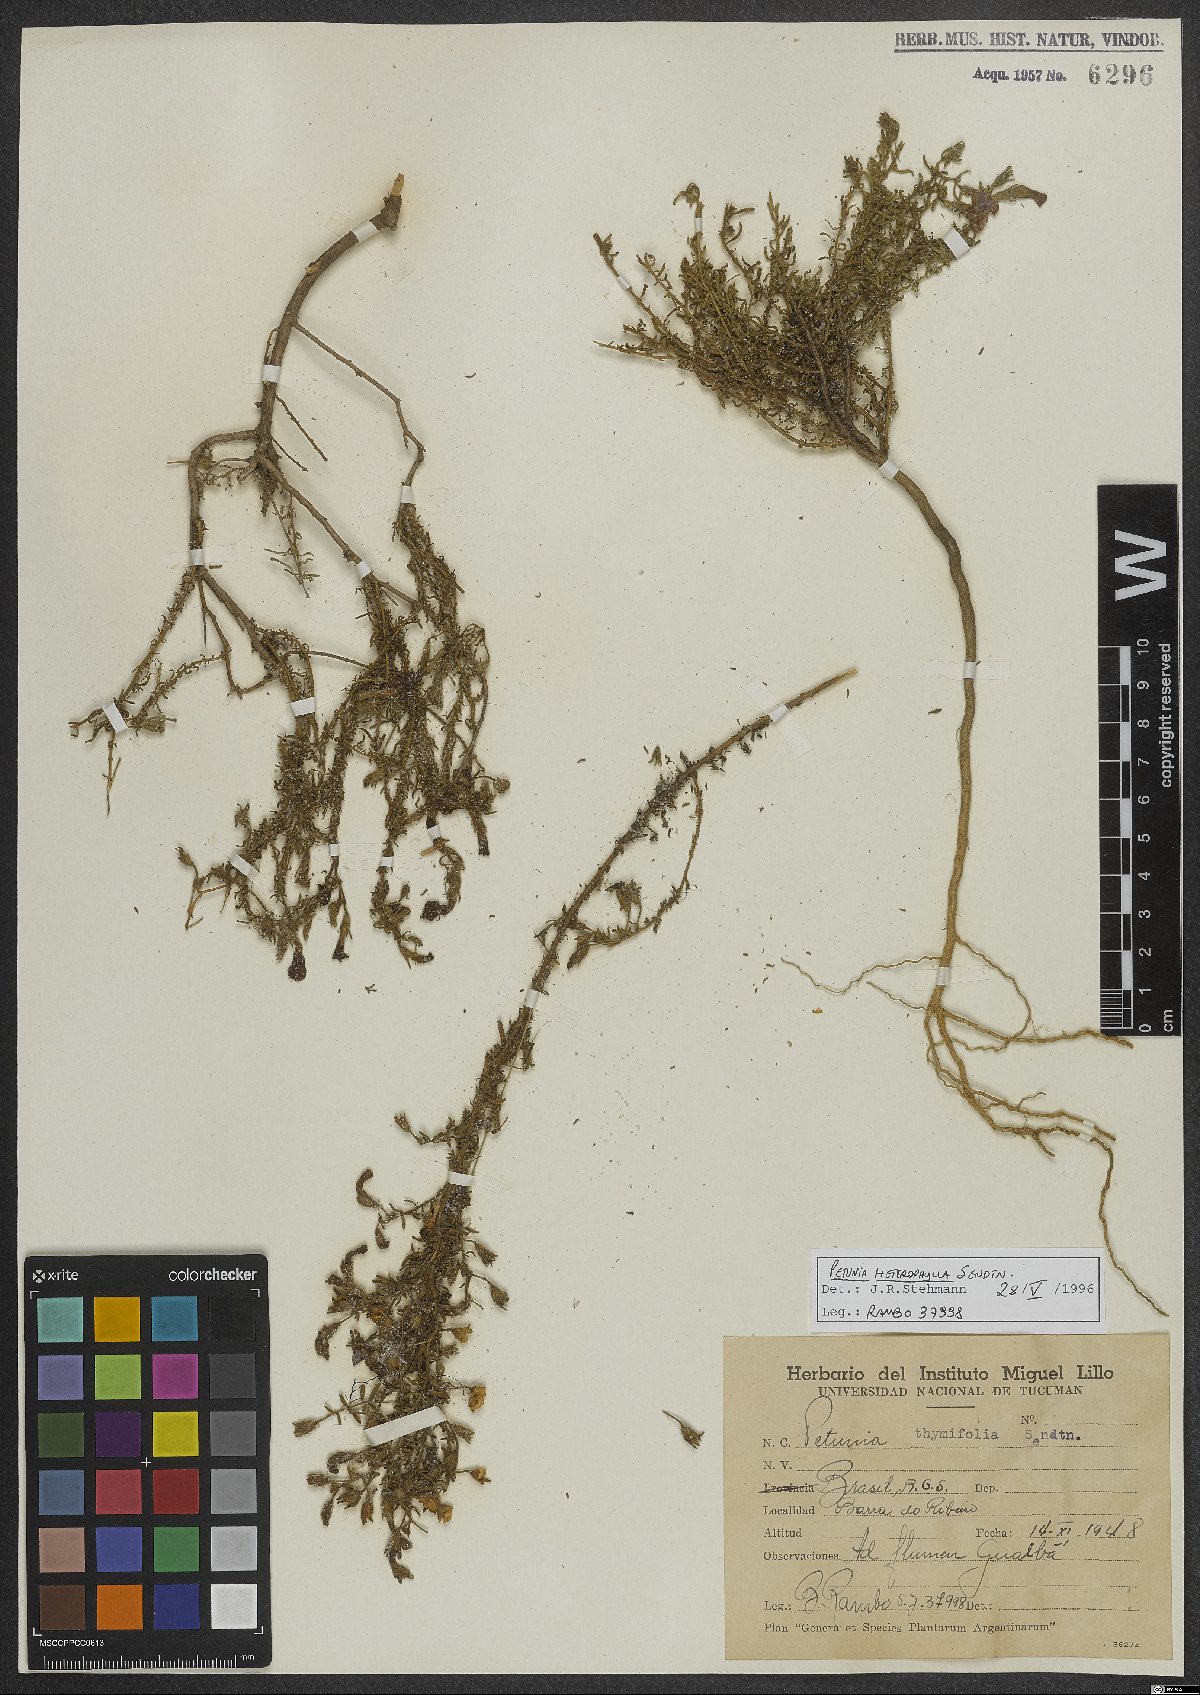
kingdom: Plantae
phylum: Tracheophyta
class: Magnoliopsida
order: Solanales
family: Solanaceae
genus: Calibrachoa
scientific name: Calibrachoa heterophylla
